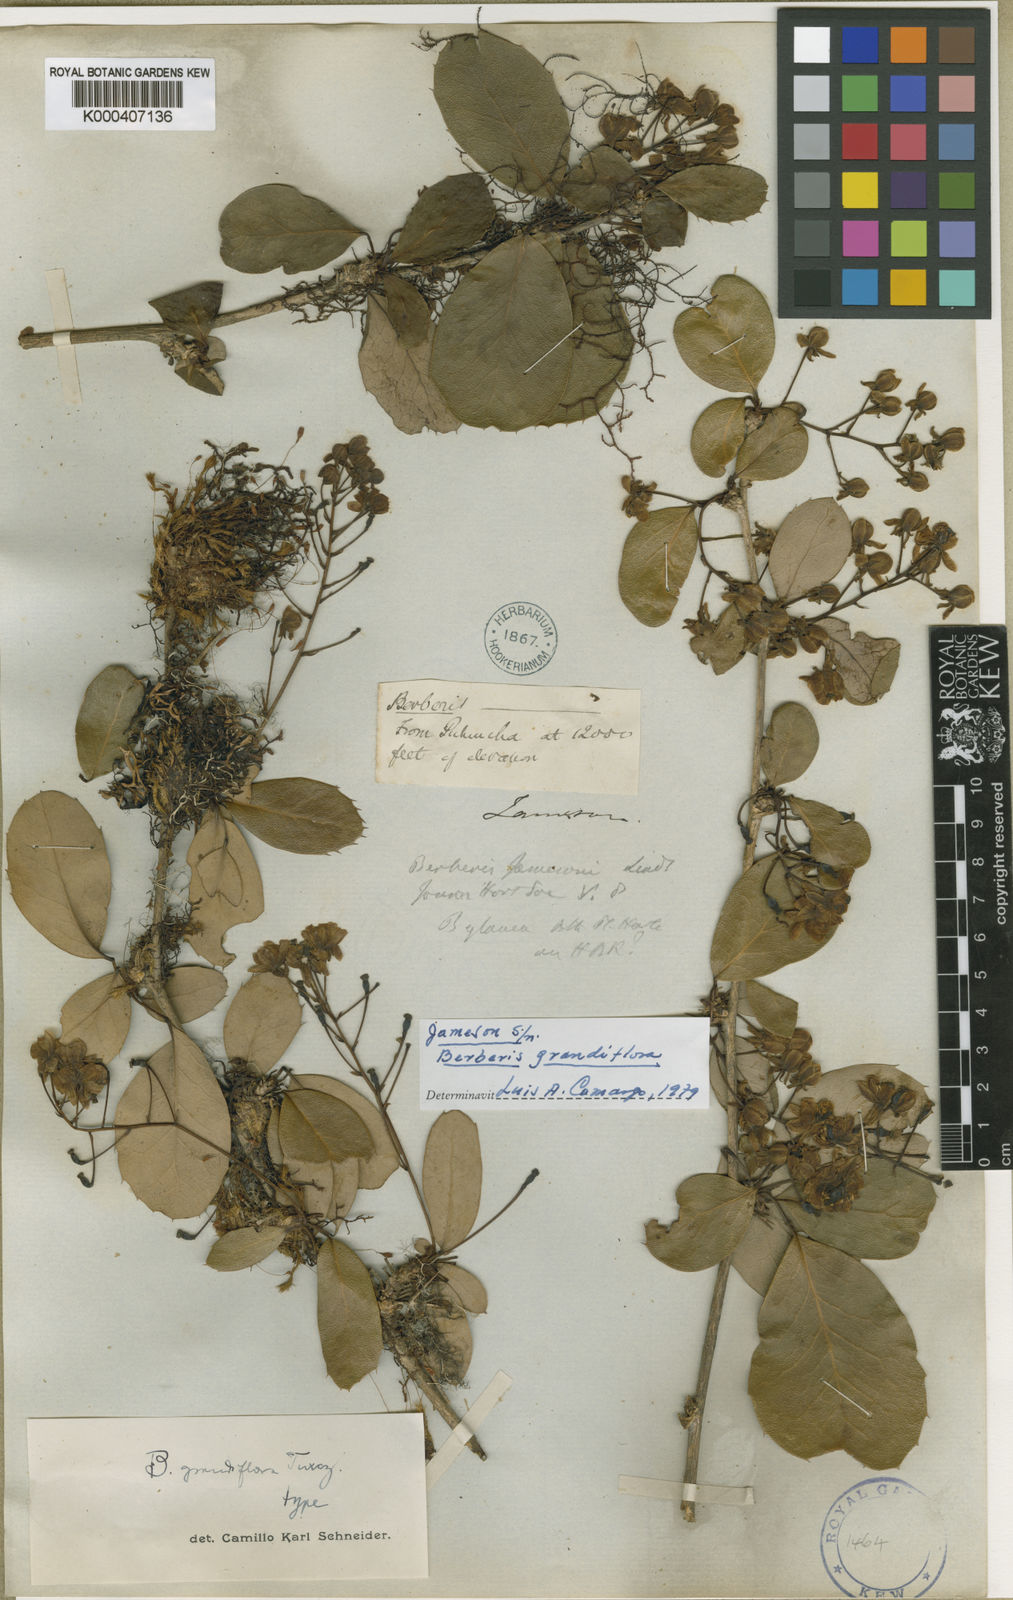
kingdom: Plantae
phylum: Tracheophyta
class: Magnoliopsida
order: Ranunculales
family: Berberidaceae
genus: Berberis
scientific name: Berberis grandiflora
